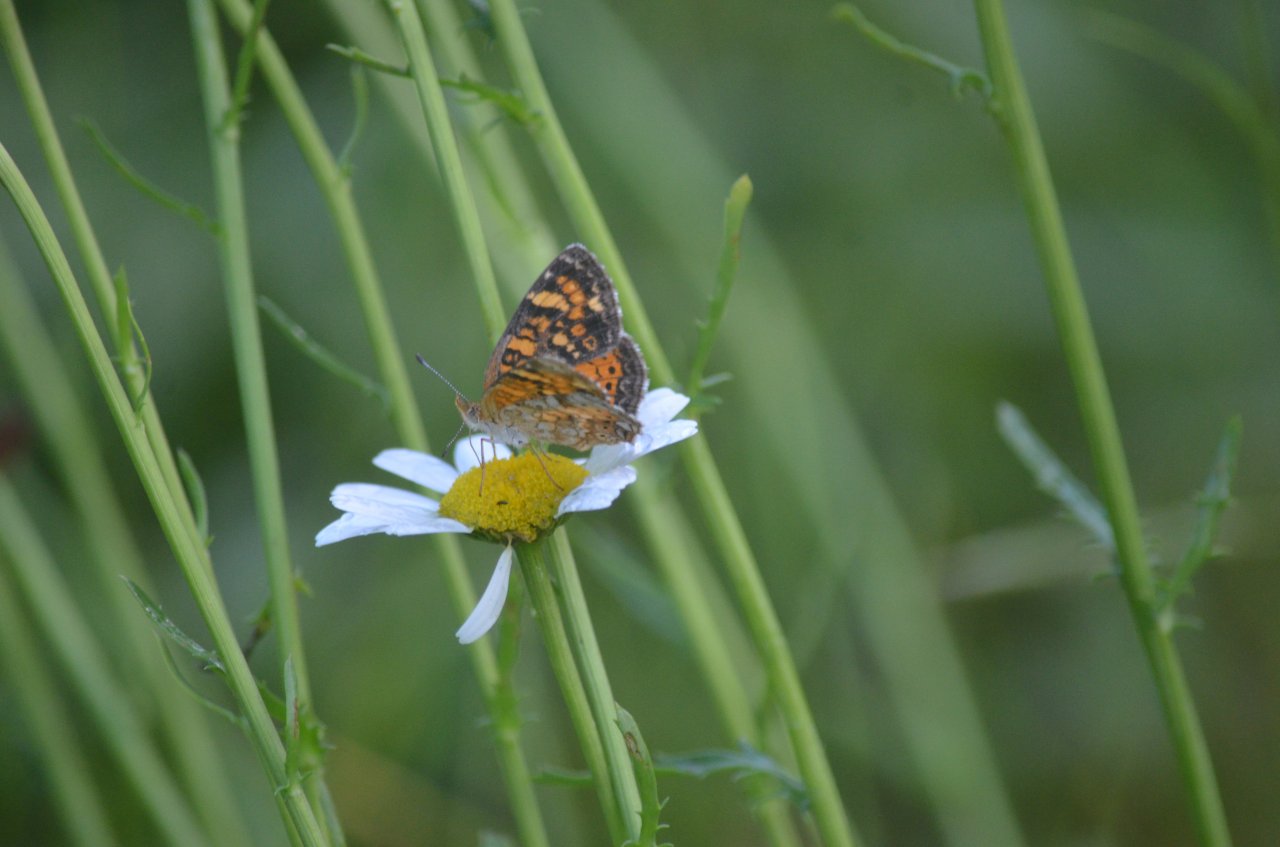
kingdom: Animalia
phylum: Arthropoda
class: Insecta
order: Lepidoptera
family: Nymphalidae
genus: Phyciodes
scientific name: Phyciodes tharos
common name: Northern Crescent
